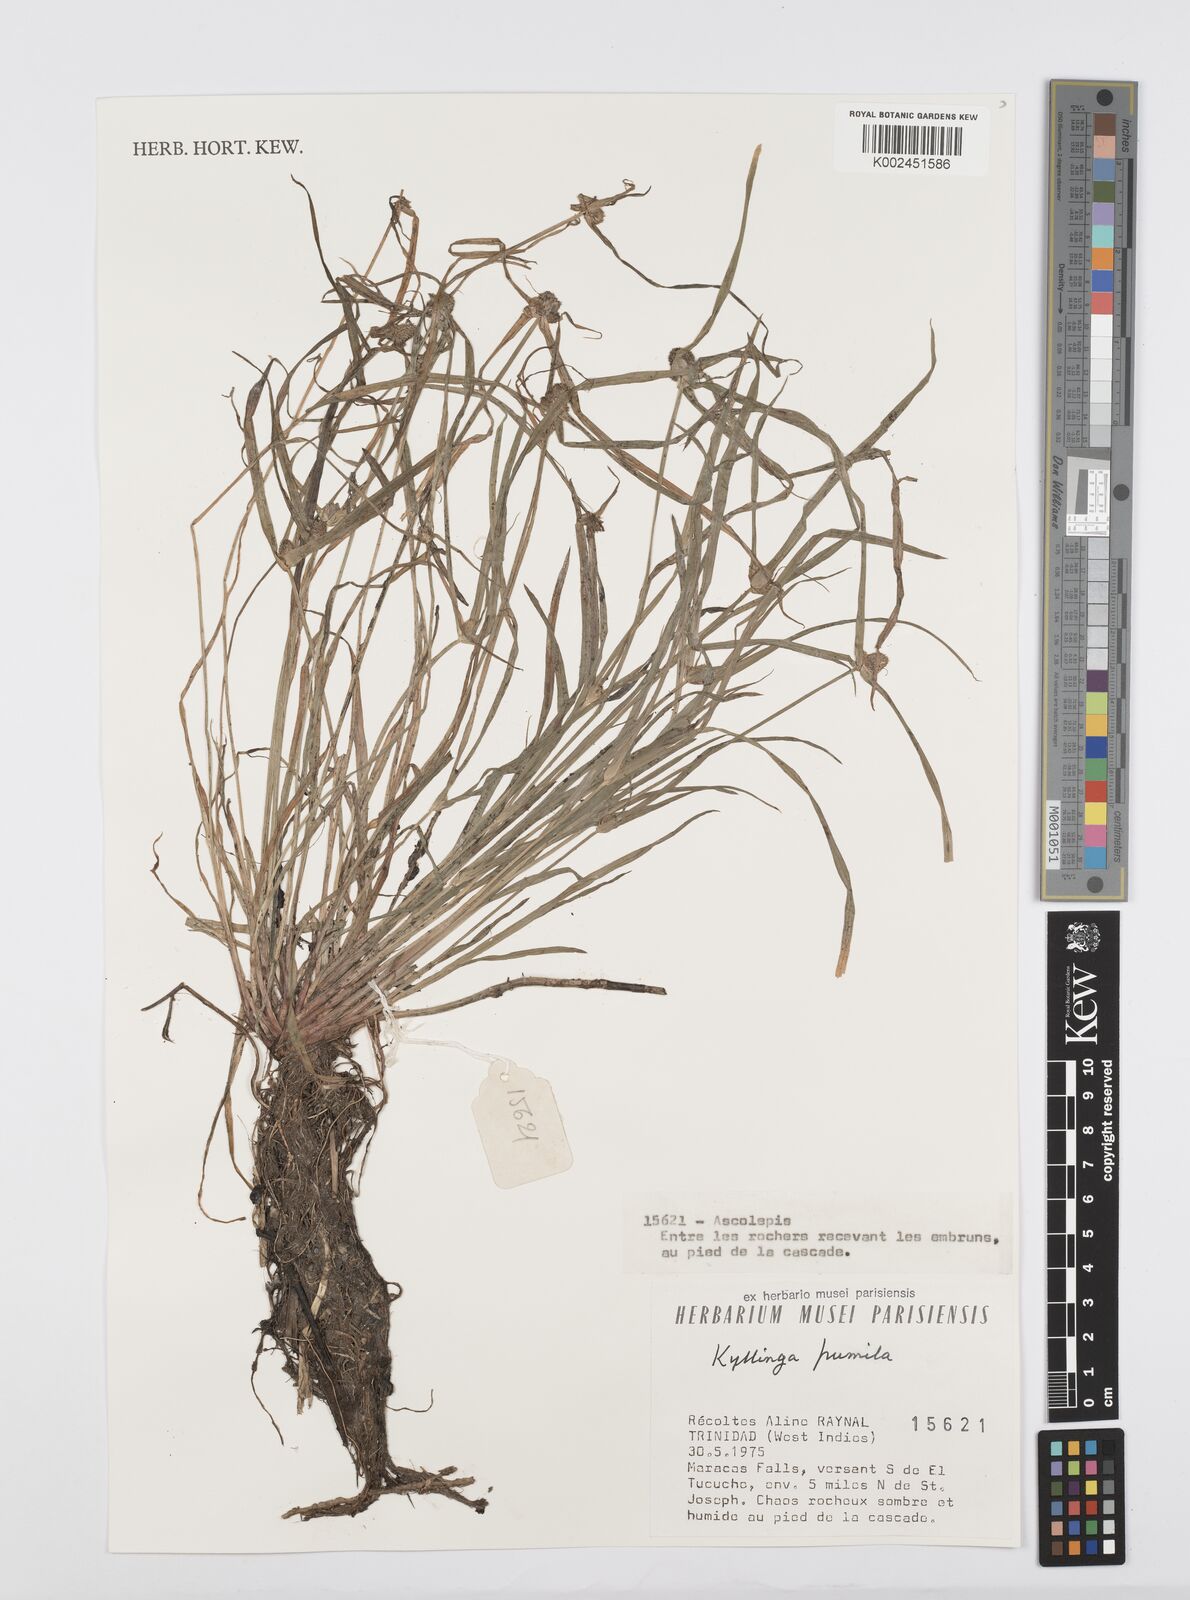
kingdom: Plantae
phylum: Tracheophyta
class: Liliopsida
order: Poales
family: Cyperaceae
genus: Cyperus
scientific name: Cyperus
